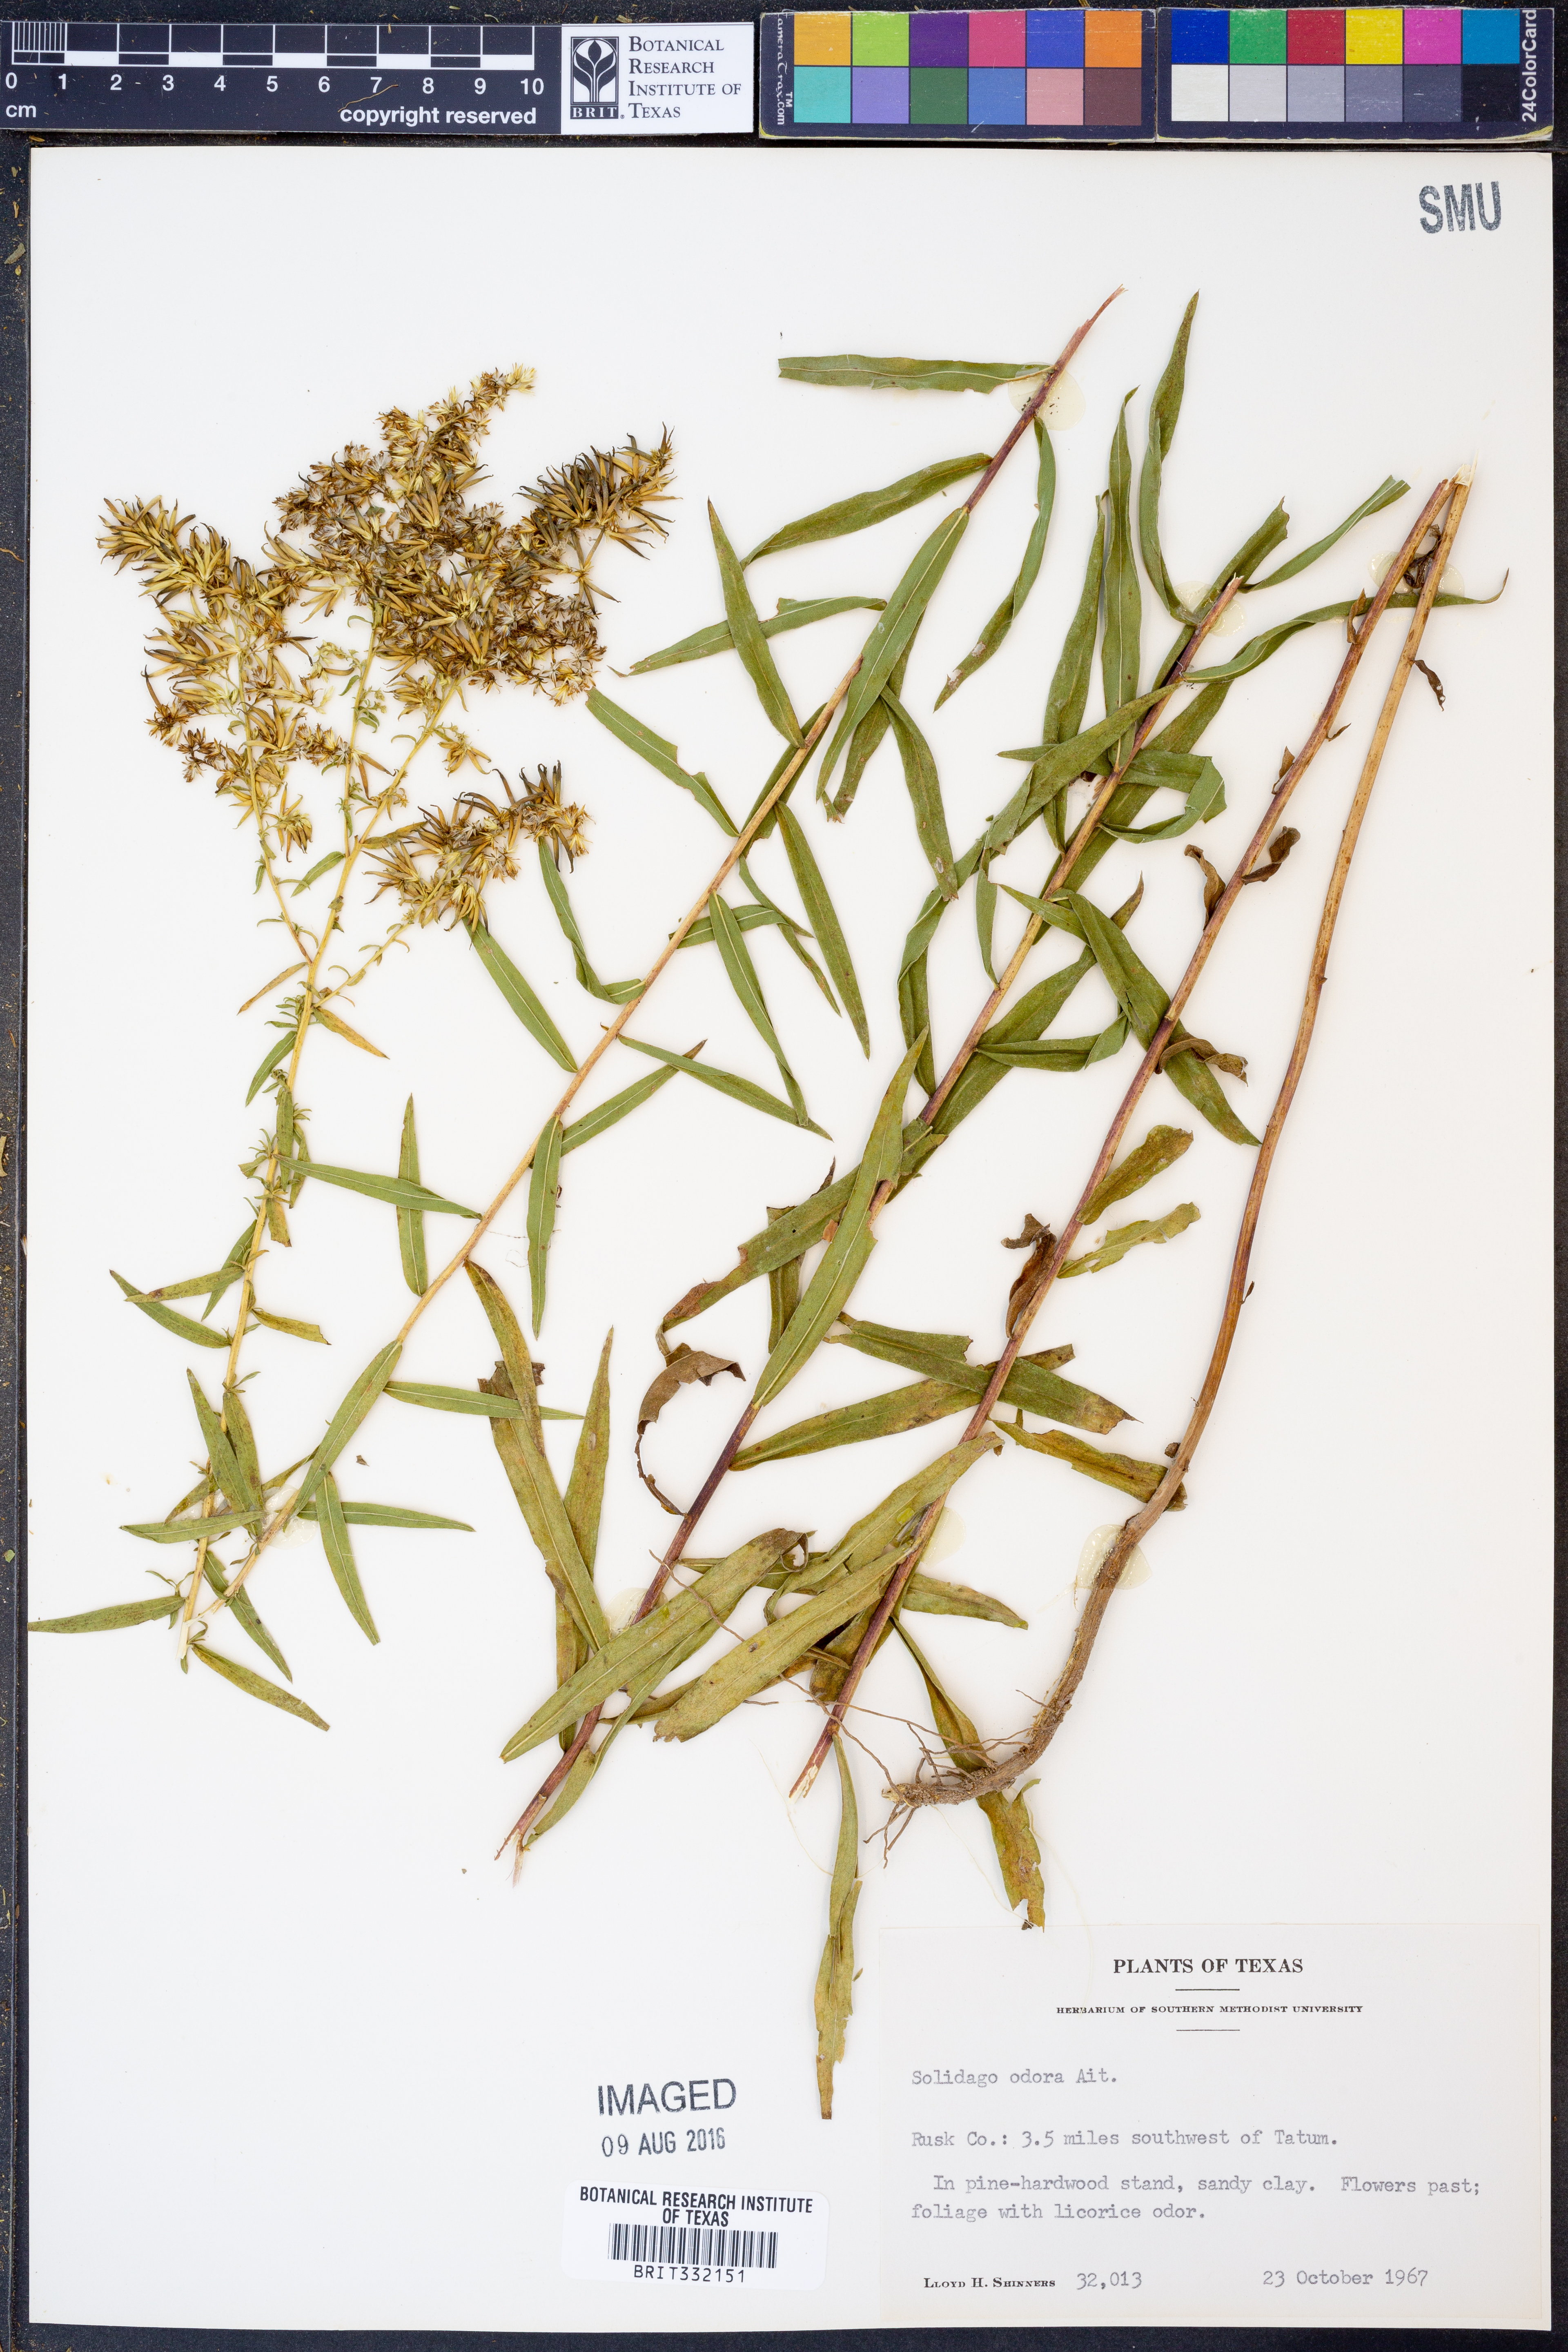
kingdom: Plantae
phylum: Tracheophyta
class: Magnoliopsida
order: Asterales
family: Asteraceae
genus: Solidago
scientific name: Solidago odora
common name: Anise-scented goldenrod
